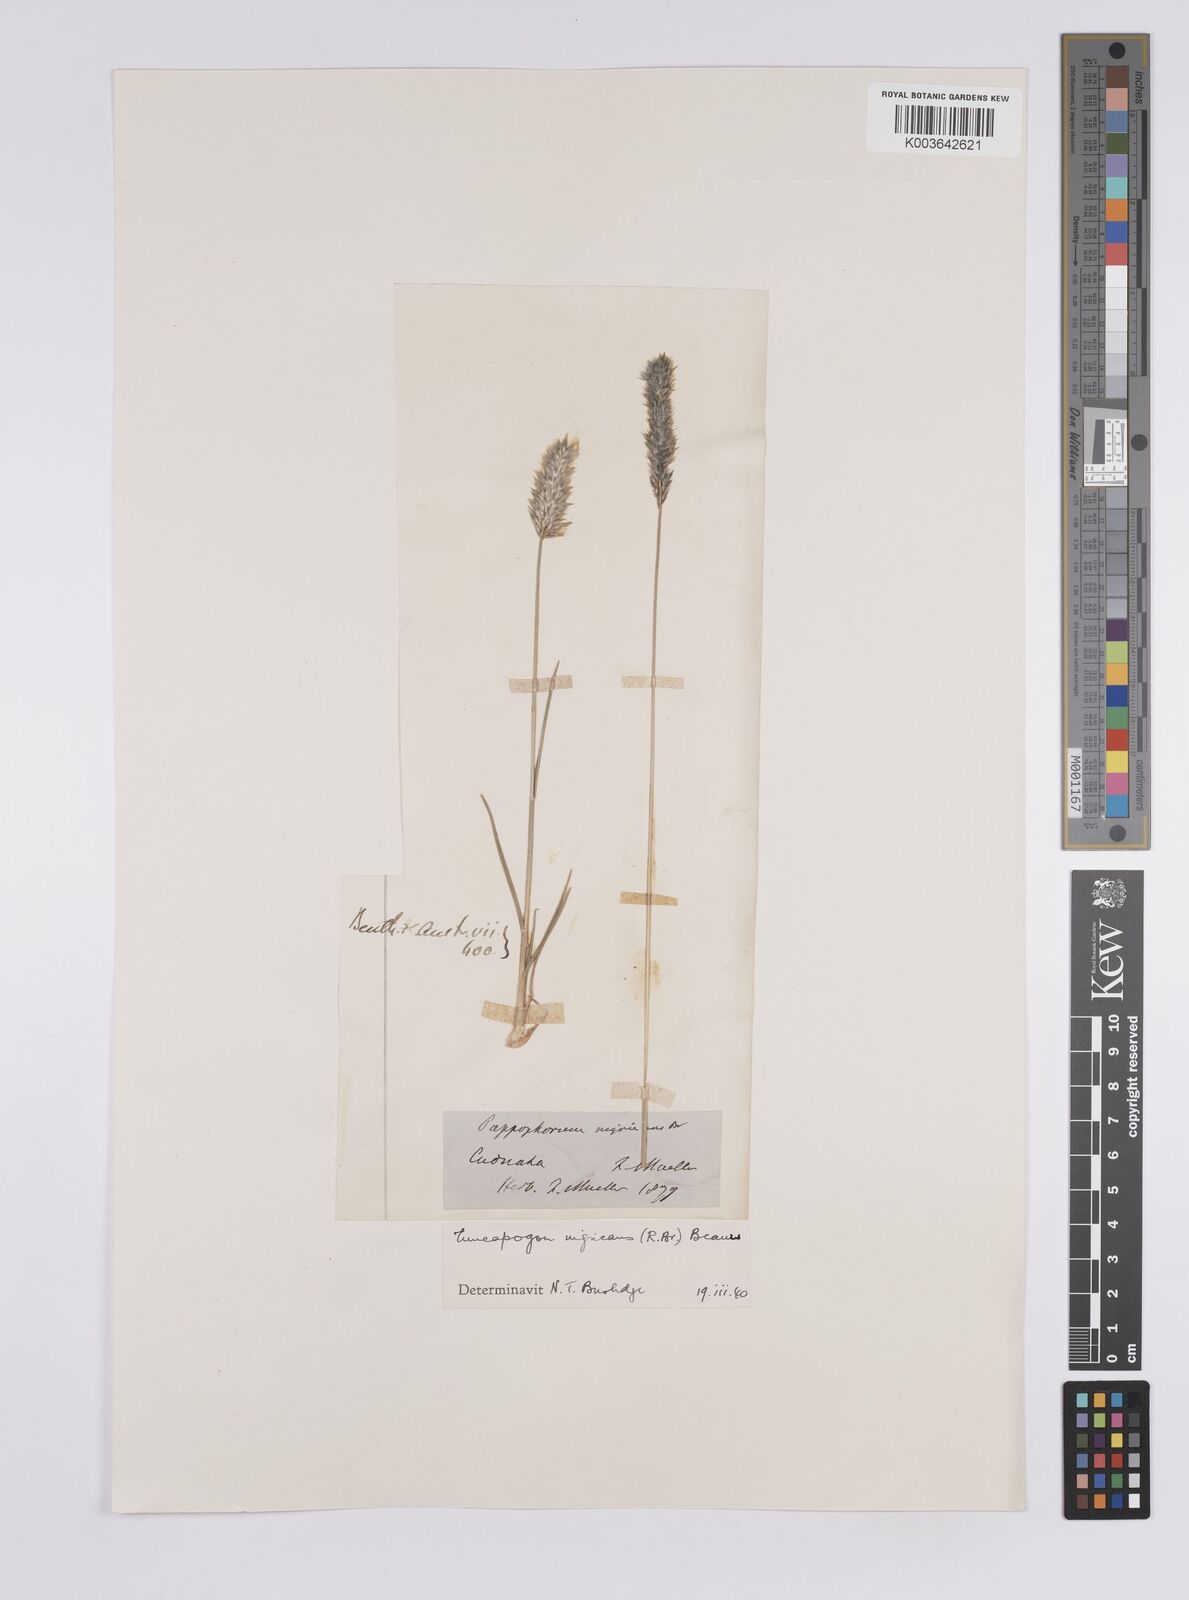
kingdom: Plantae
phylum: Tracheophyta
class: Liliopsida
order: Poales
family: Poaceae
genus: Enneapogon
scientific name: Enneapogon nigricans
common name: Pappus grass
